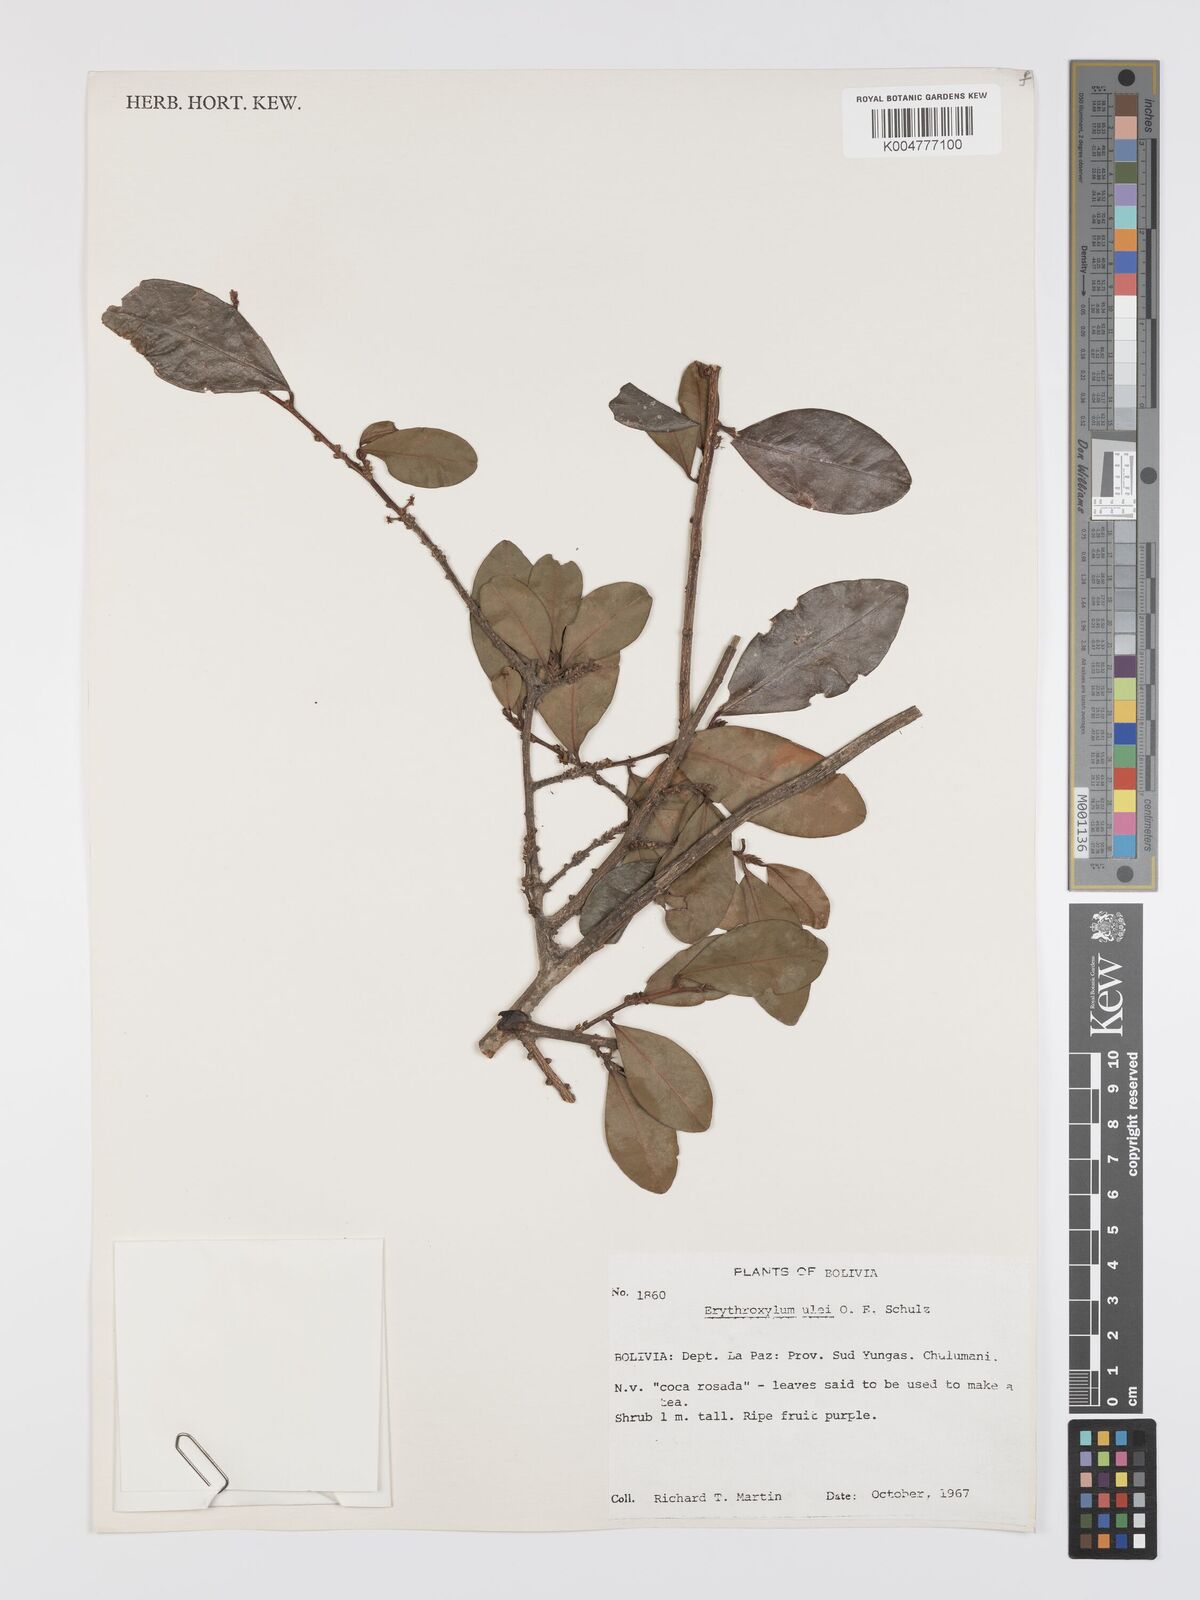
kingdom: Plantae
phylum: Tracheophyta
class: Magnoliopsida
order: Malpighiales
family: Erythroxylaceae
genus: Erythroxylum
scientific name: Erythroxylum ulei
